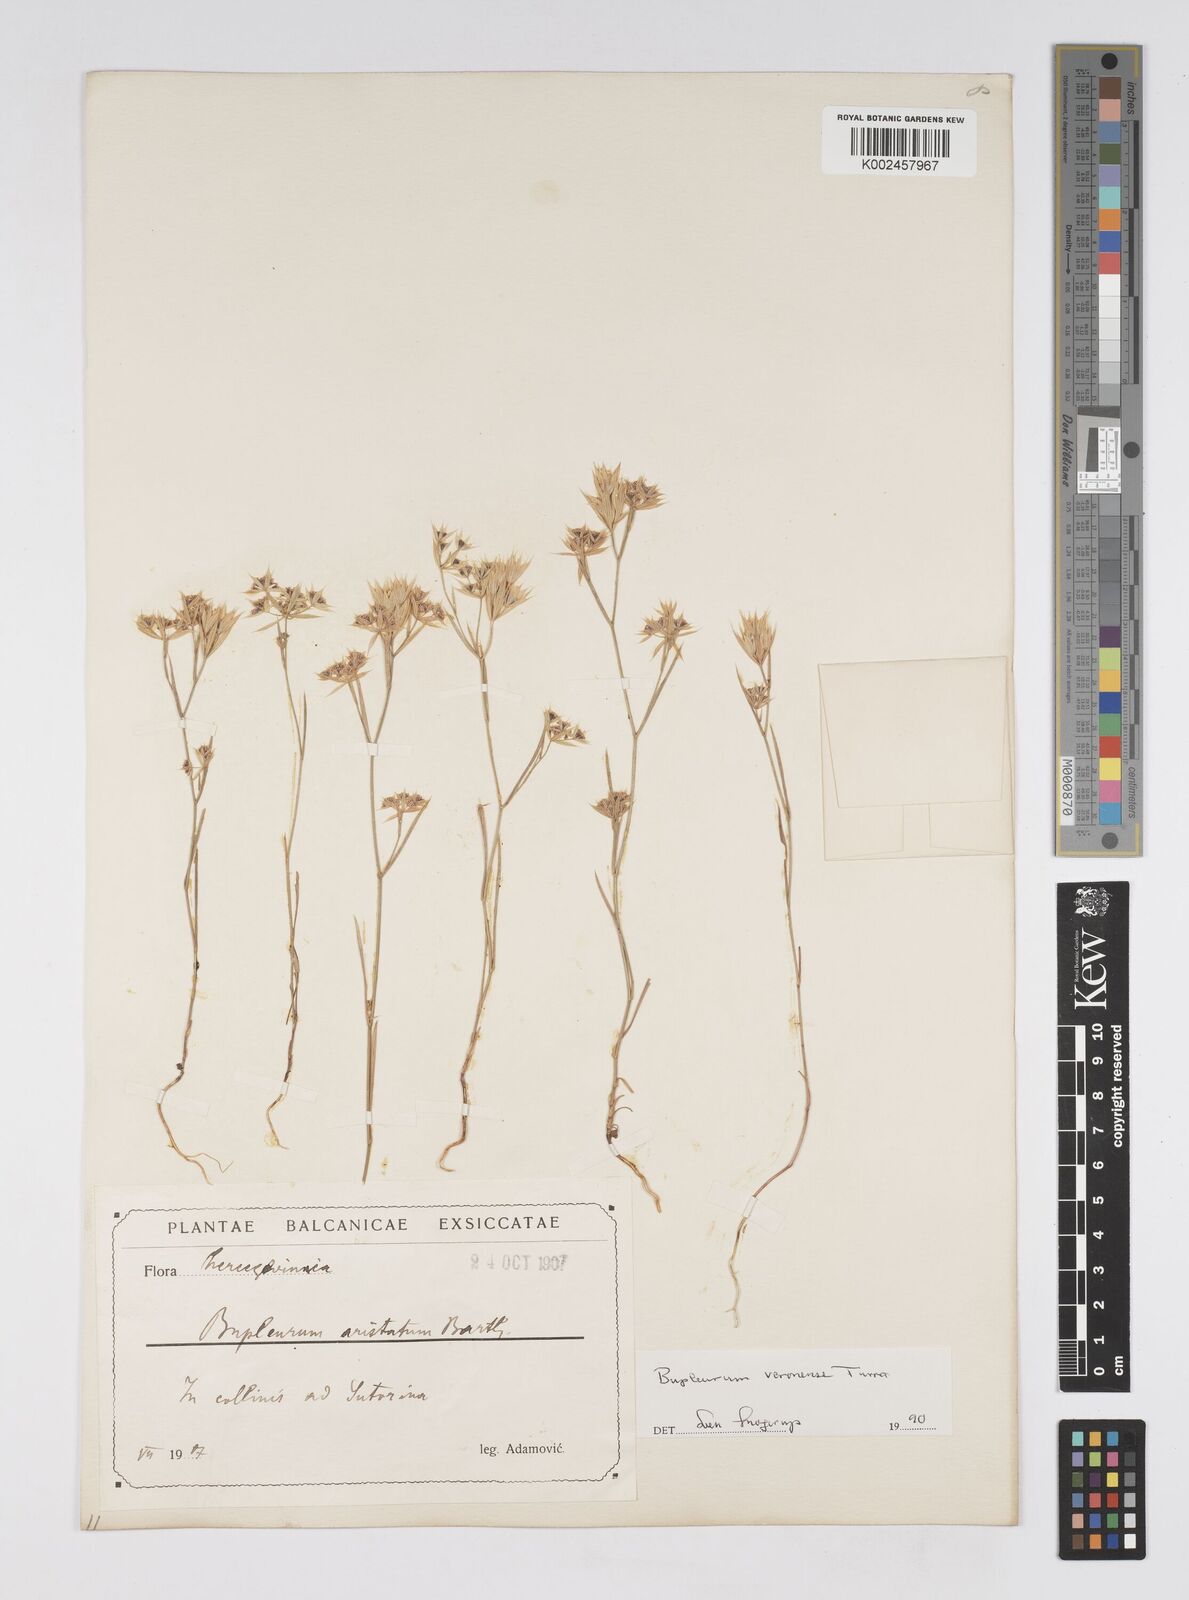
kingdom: Plantae
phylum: Tracheophyta
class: Magnoliopsida
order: Apiales
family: Apiaceae
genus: Bupleurum
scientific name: Bupleurum glumaceum
